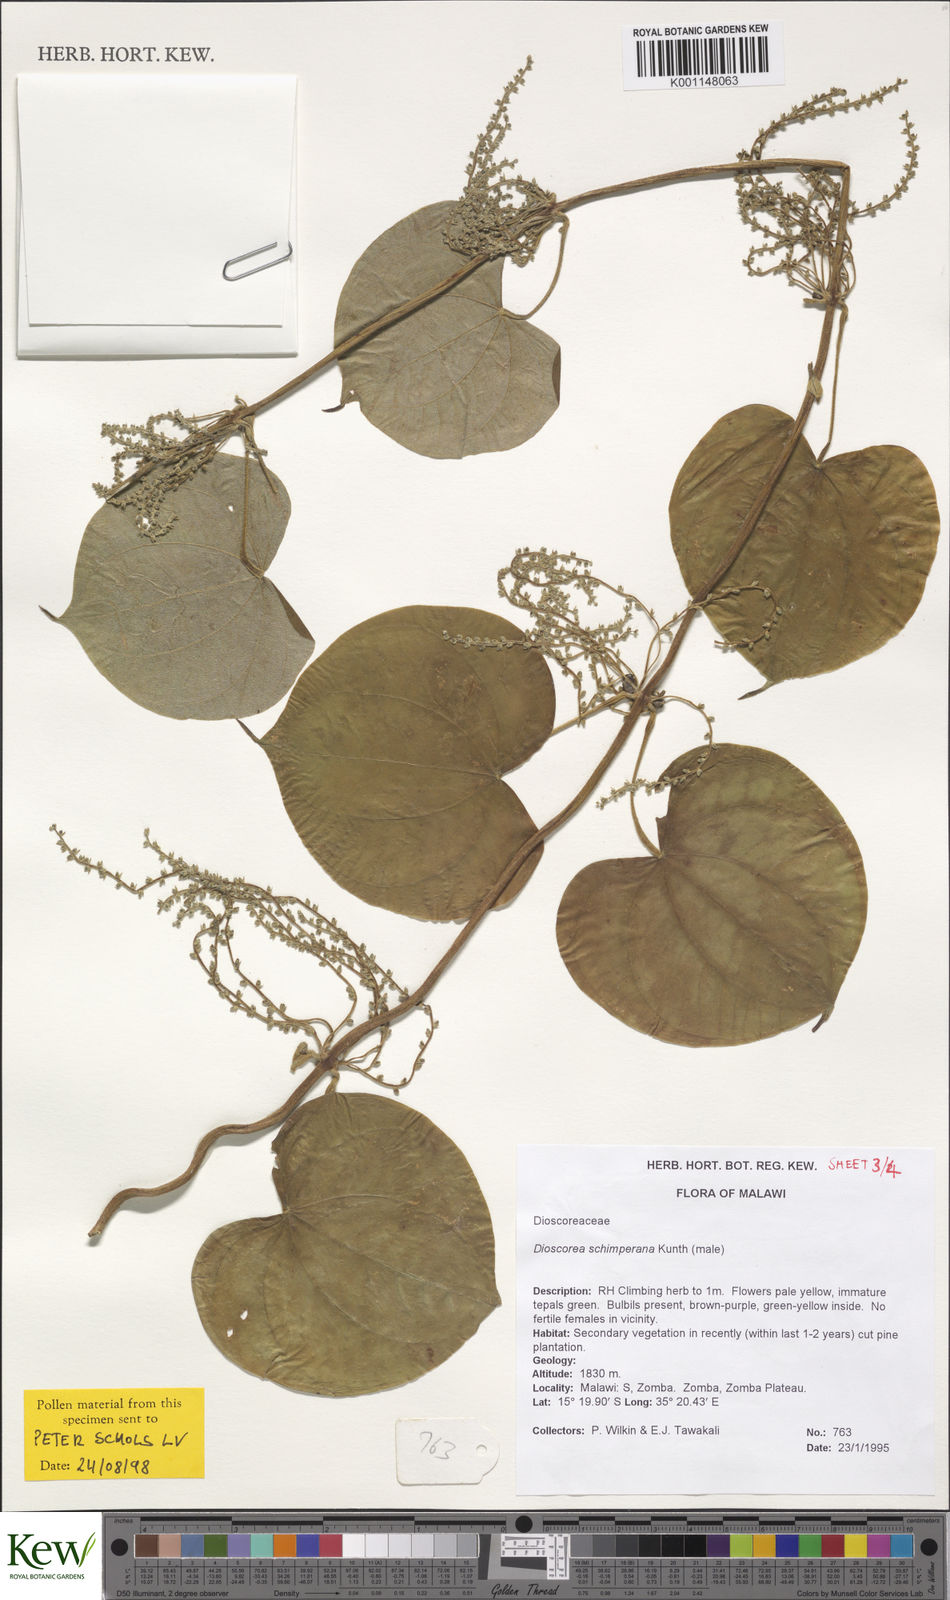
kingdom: Plantae
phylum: Tracheophyta
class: Liliopsida
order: Dioscoreales
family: Dioscoreaceae
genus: Dioscorea
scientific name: Dioscorea schimperiana
